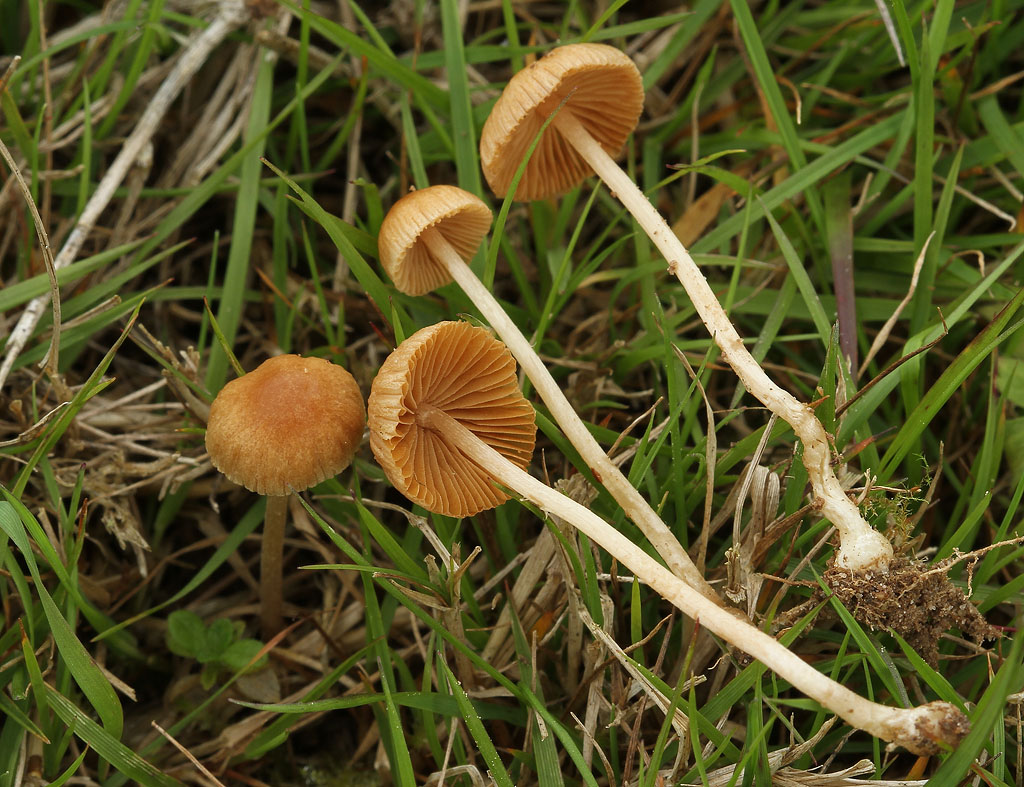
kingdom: Fungi
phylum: Basidiomycota
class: Agaricomycetes
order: Agaricales
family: Bolbitiaceae
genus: Pholiotina
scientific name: Pholiotina sulcata
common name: plisseret dansehat
